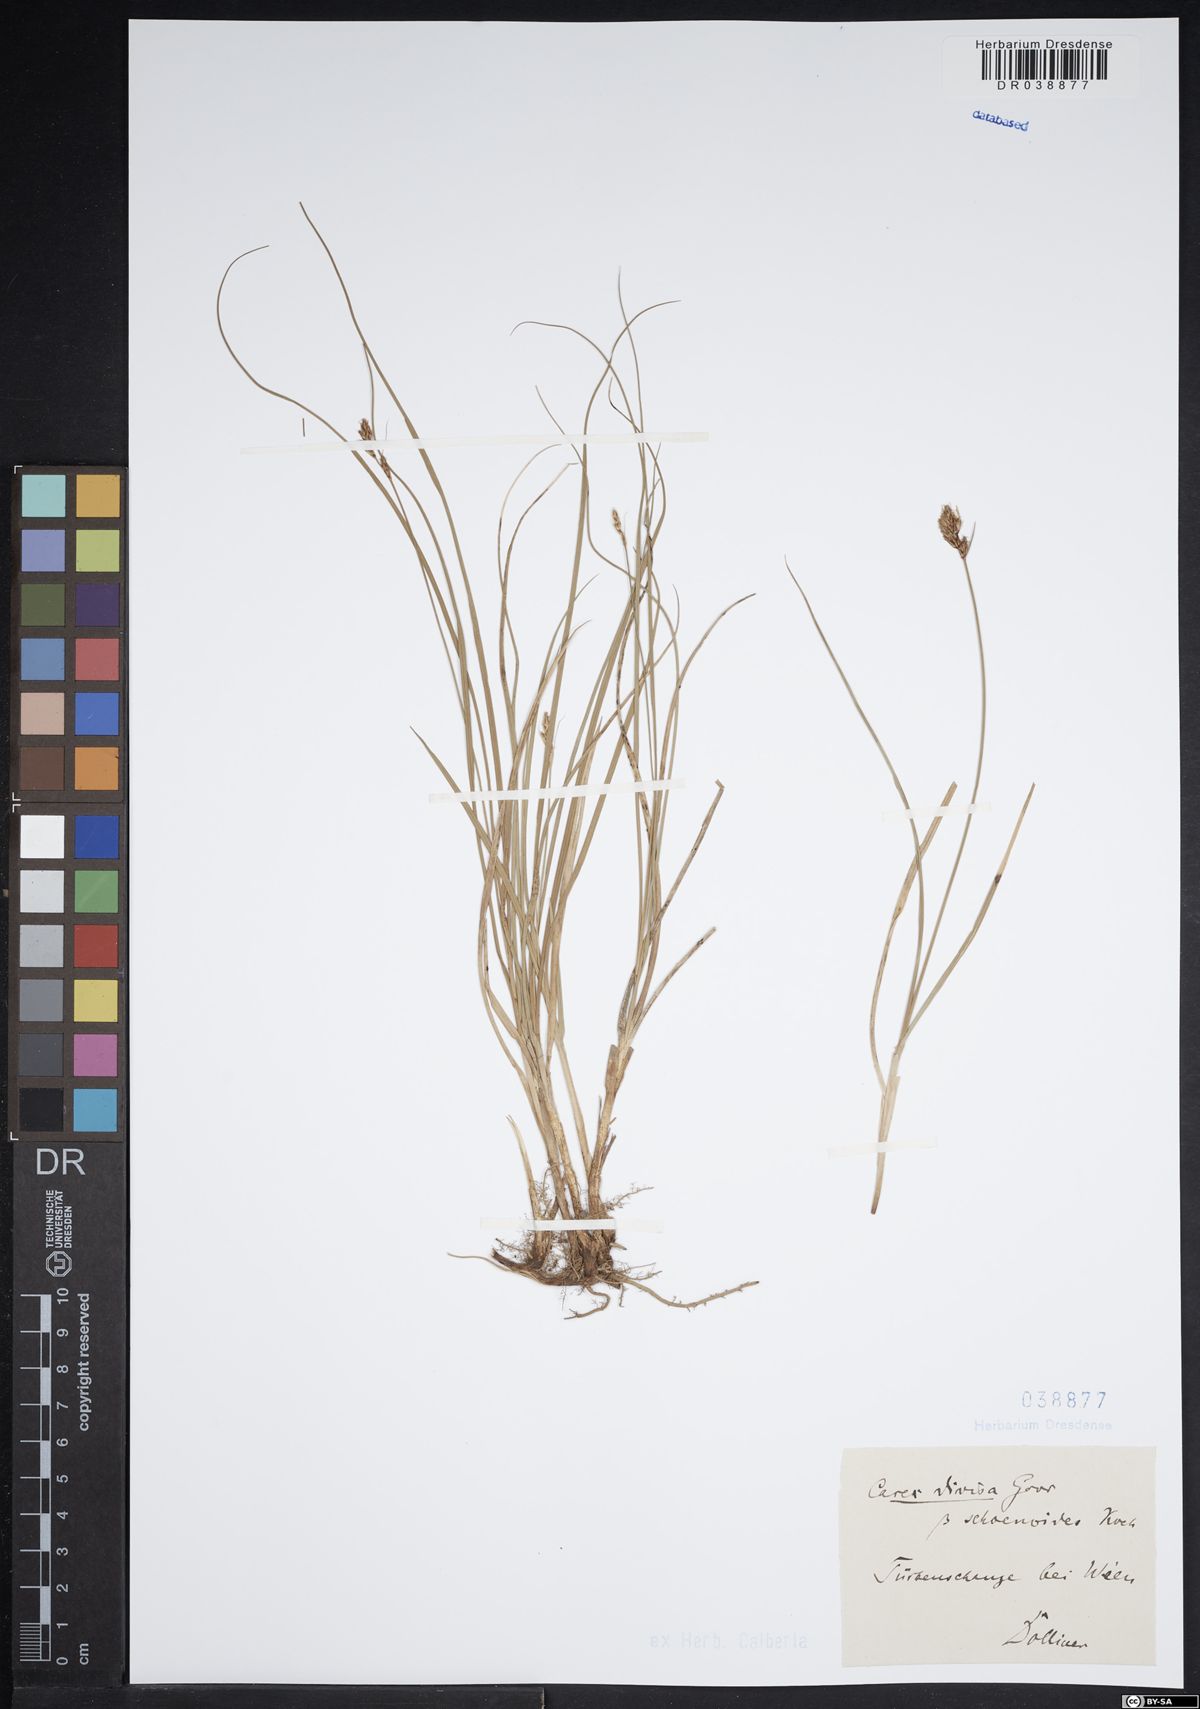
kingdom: Plantae
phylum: Tracheophyta
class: Liliopsida
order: Poales
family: Cyperaceae
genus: Carex
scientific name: Carex divisa
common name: Divided sedge
